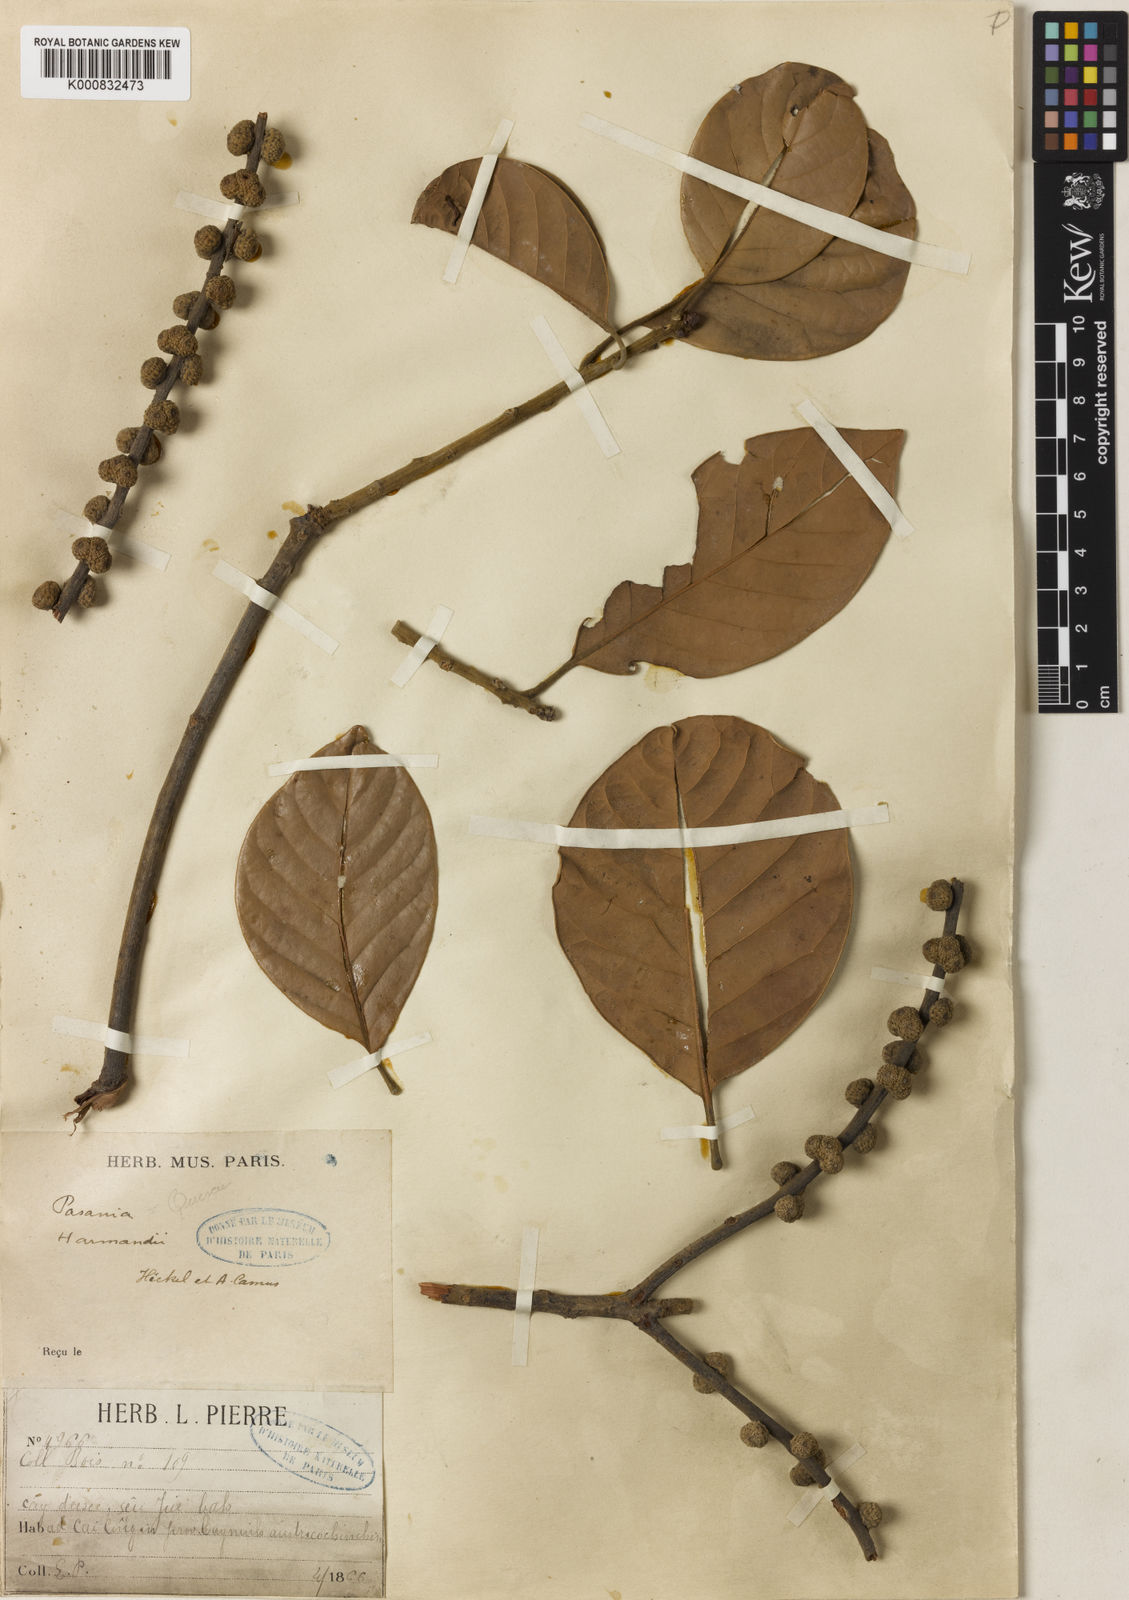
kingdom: Plantae
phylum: Tracheophyta
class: Magnoliopsida
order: Fagales
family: Fagaceae
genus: Lithocarpus
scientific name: Lithocarpus harmandii
